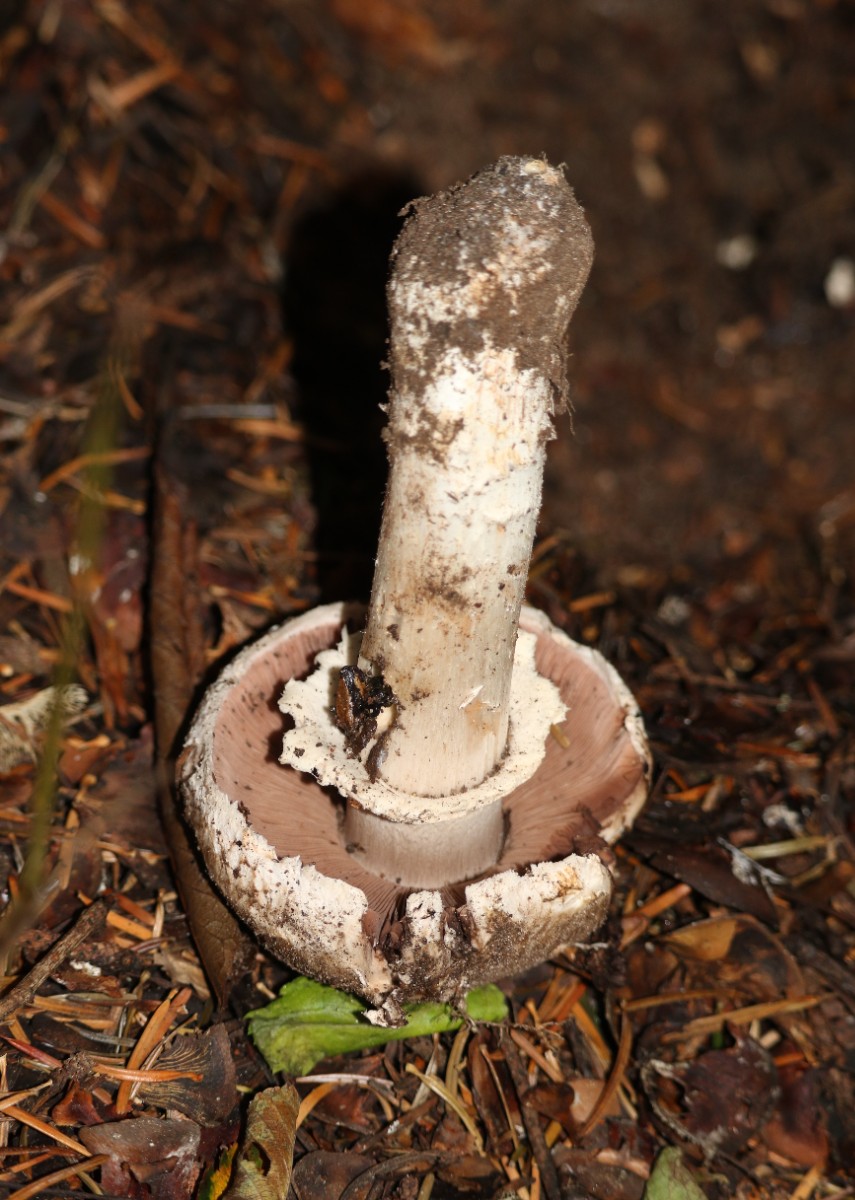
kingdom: Fungi
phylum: Basidiomycota
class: Agaricomycetes
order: Agaricales
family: Agaricaceae
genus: Agaricus
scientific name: Agaricus
